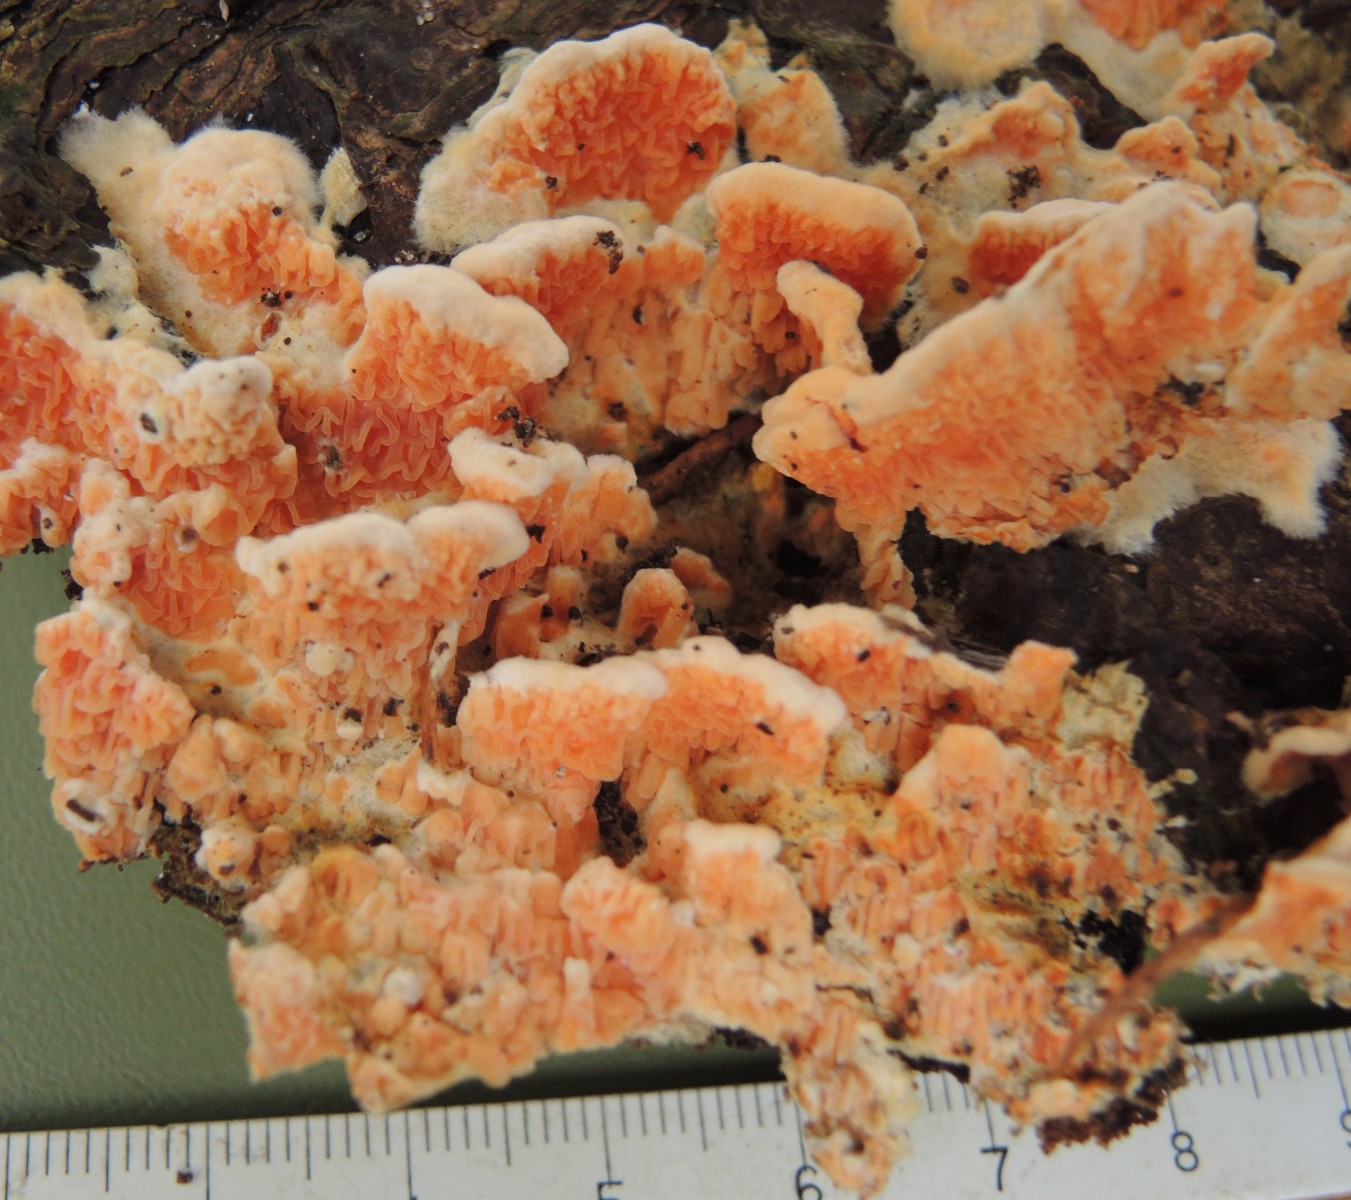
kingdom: Fungi
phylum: Basidiomycota
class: Agaricomycetes
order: Polyporales
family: Meruliaceae
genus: Phlebia
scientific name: Phlebia tremellosa
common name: bævrende åresvamp
